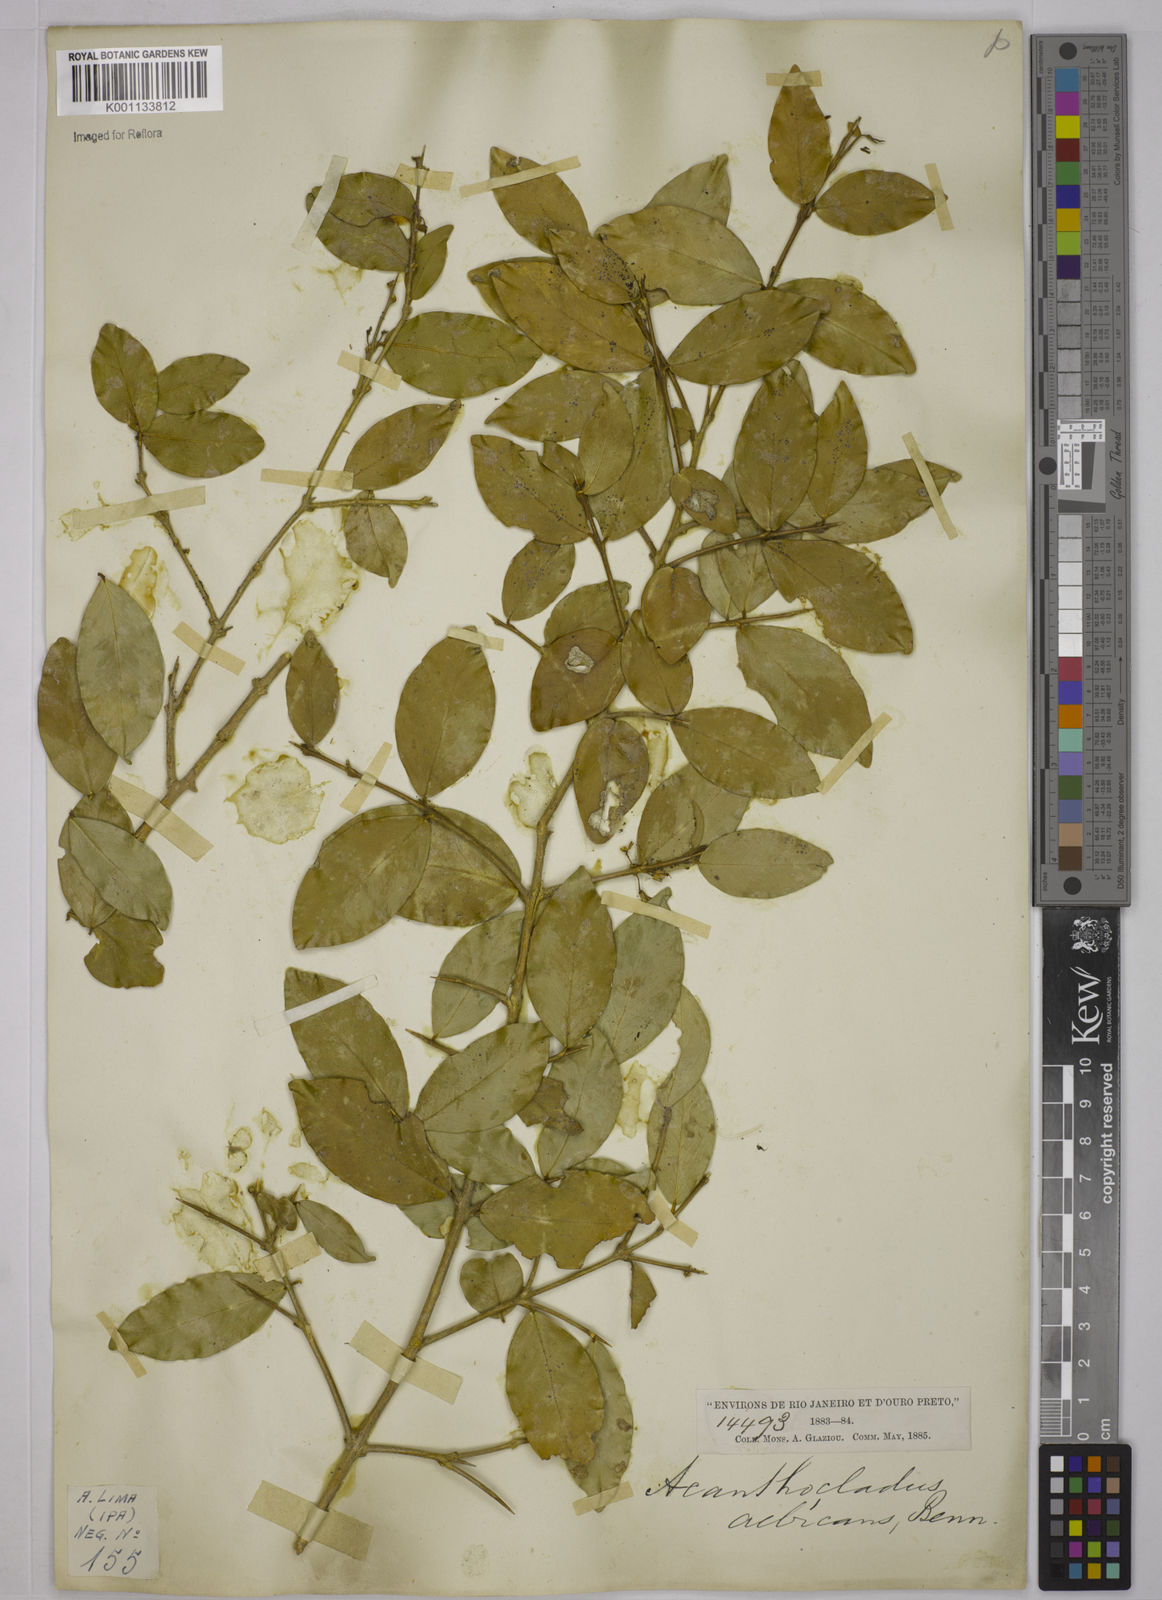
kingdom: Plantae
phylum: Tracheophyta
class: Magnoliopsida
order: Fabales
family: Polygalaceae
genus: Acanthocladus
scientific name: Acanthocladus dichromus
